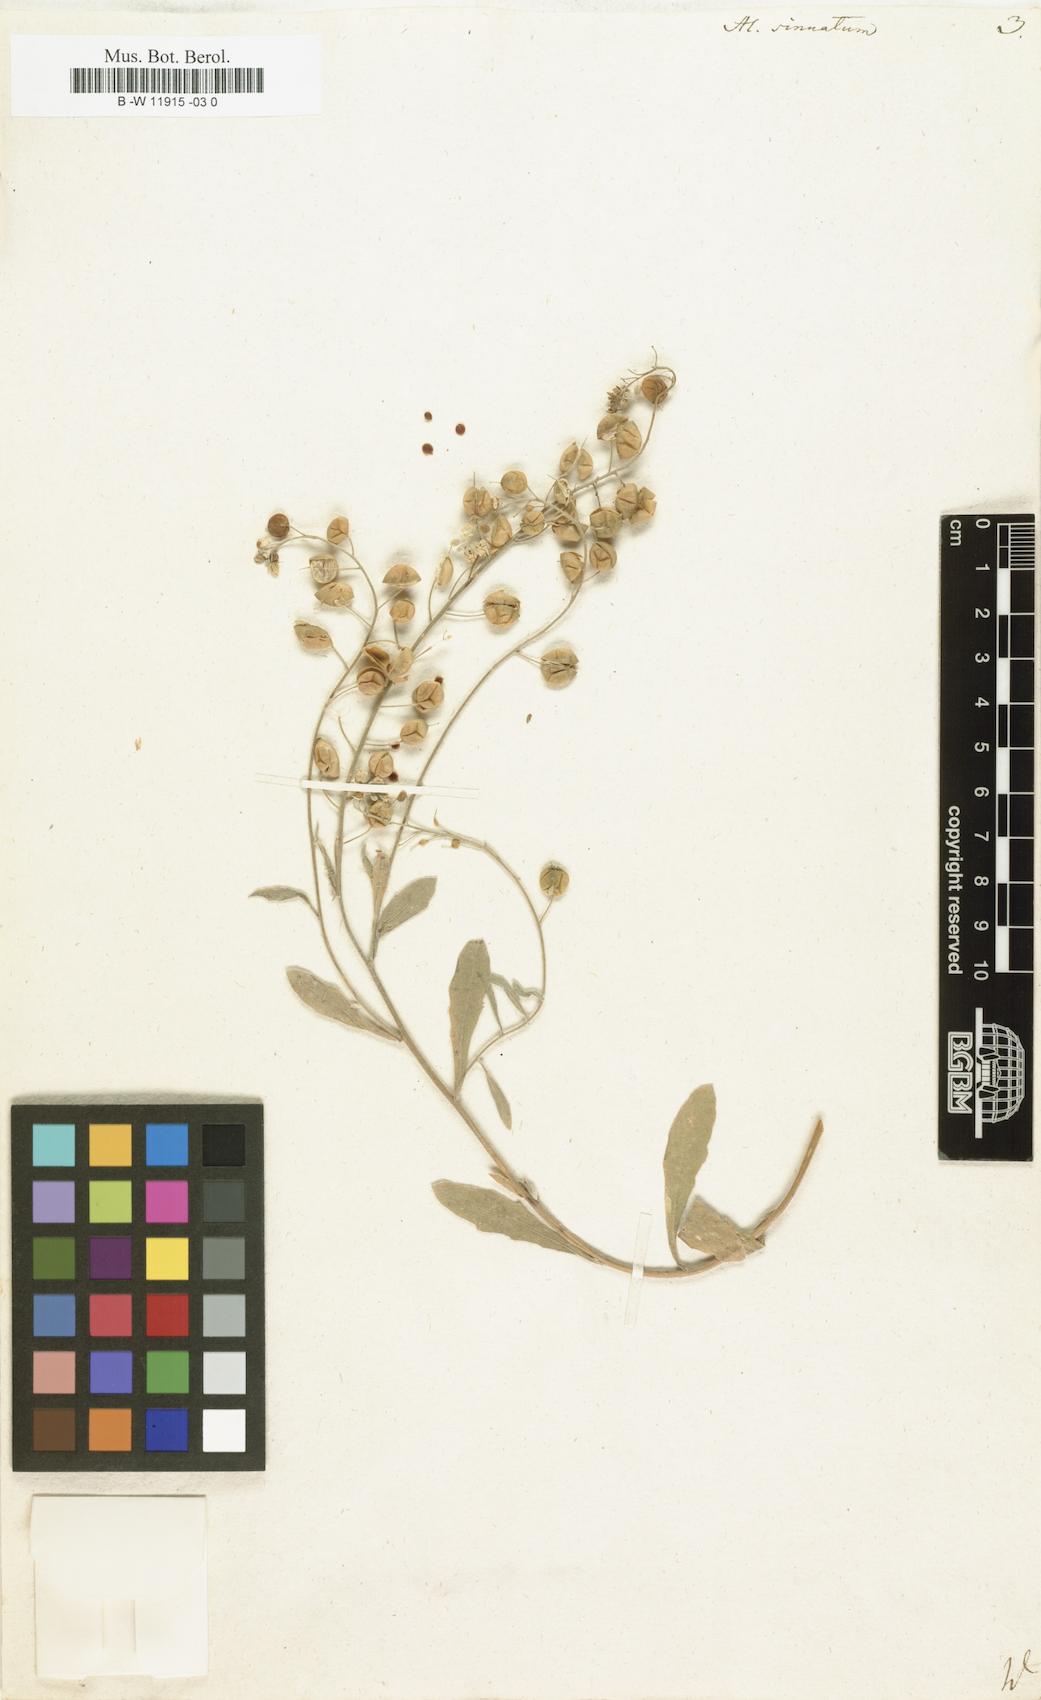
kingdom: Plantae
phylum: Tracheophyta
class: Magnoliopsida
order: Brassicales
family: Brassicaceae
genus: Aurinia
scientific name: Aurinia sinuata
